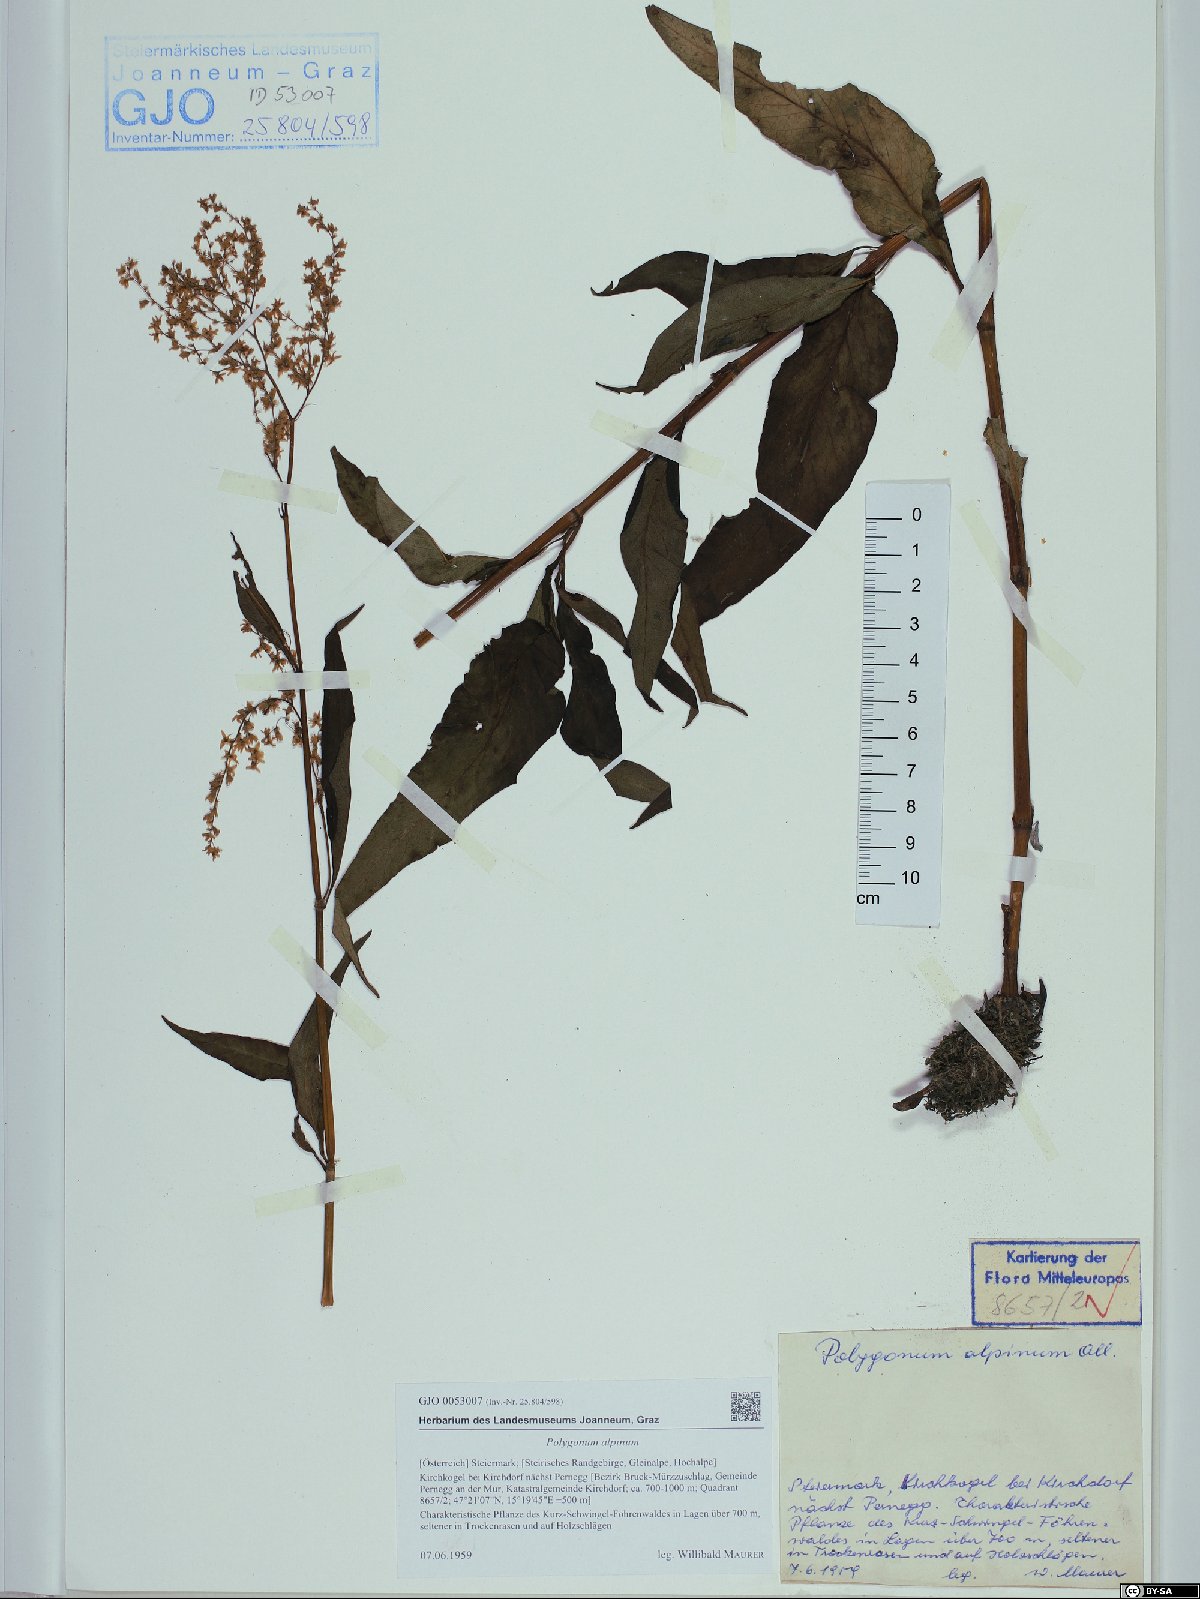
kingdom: Plantae
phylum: Tracheophyta
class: Magnoliopsida
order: Caryophyllales
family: Polygonaceae
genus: Koenigia
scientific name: Koenigia alpina
